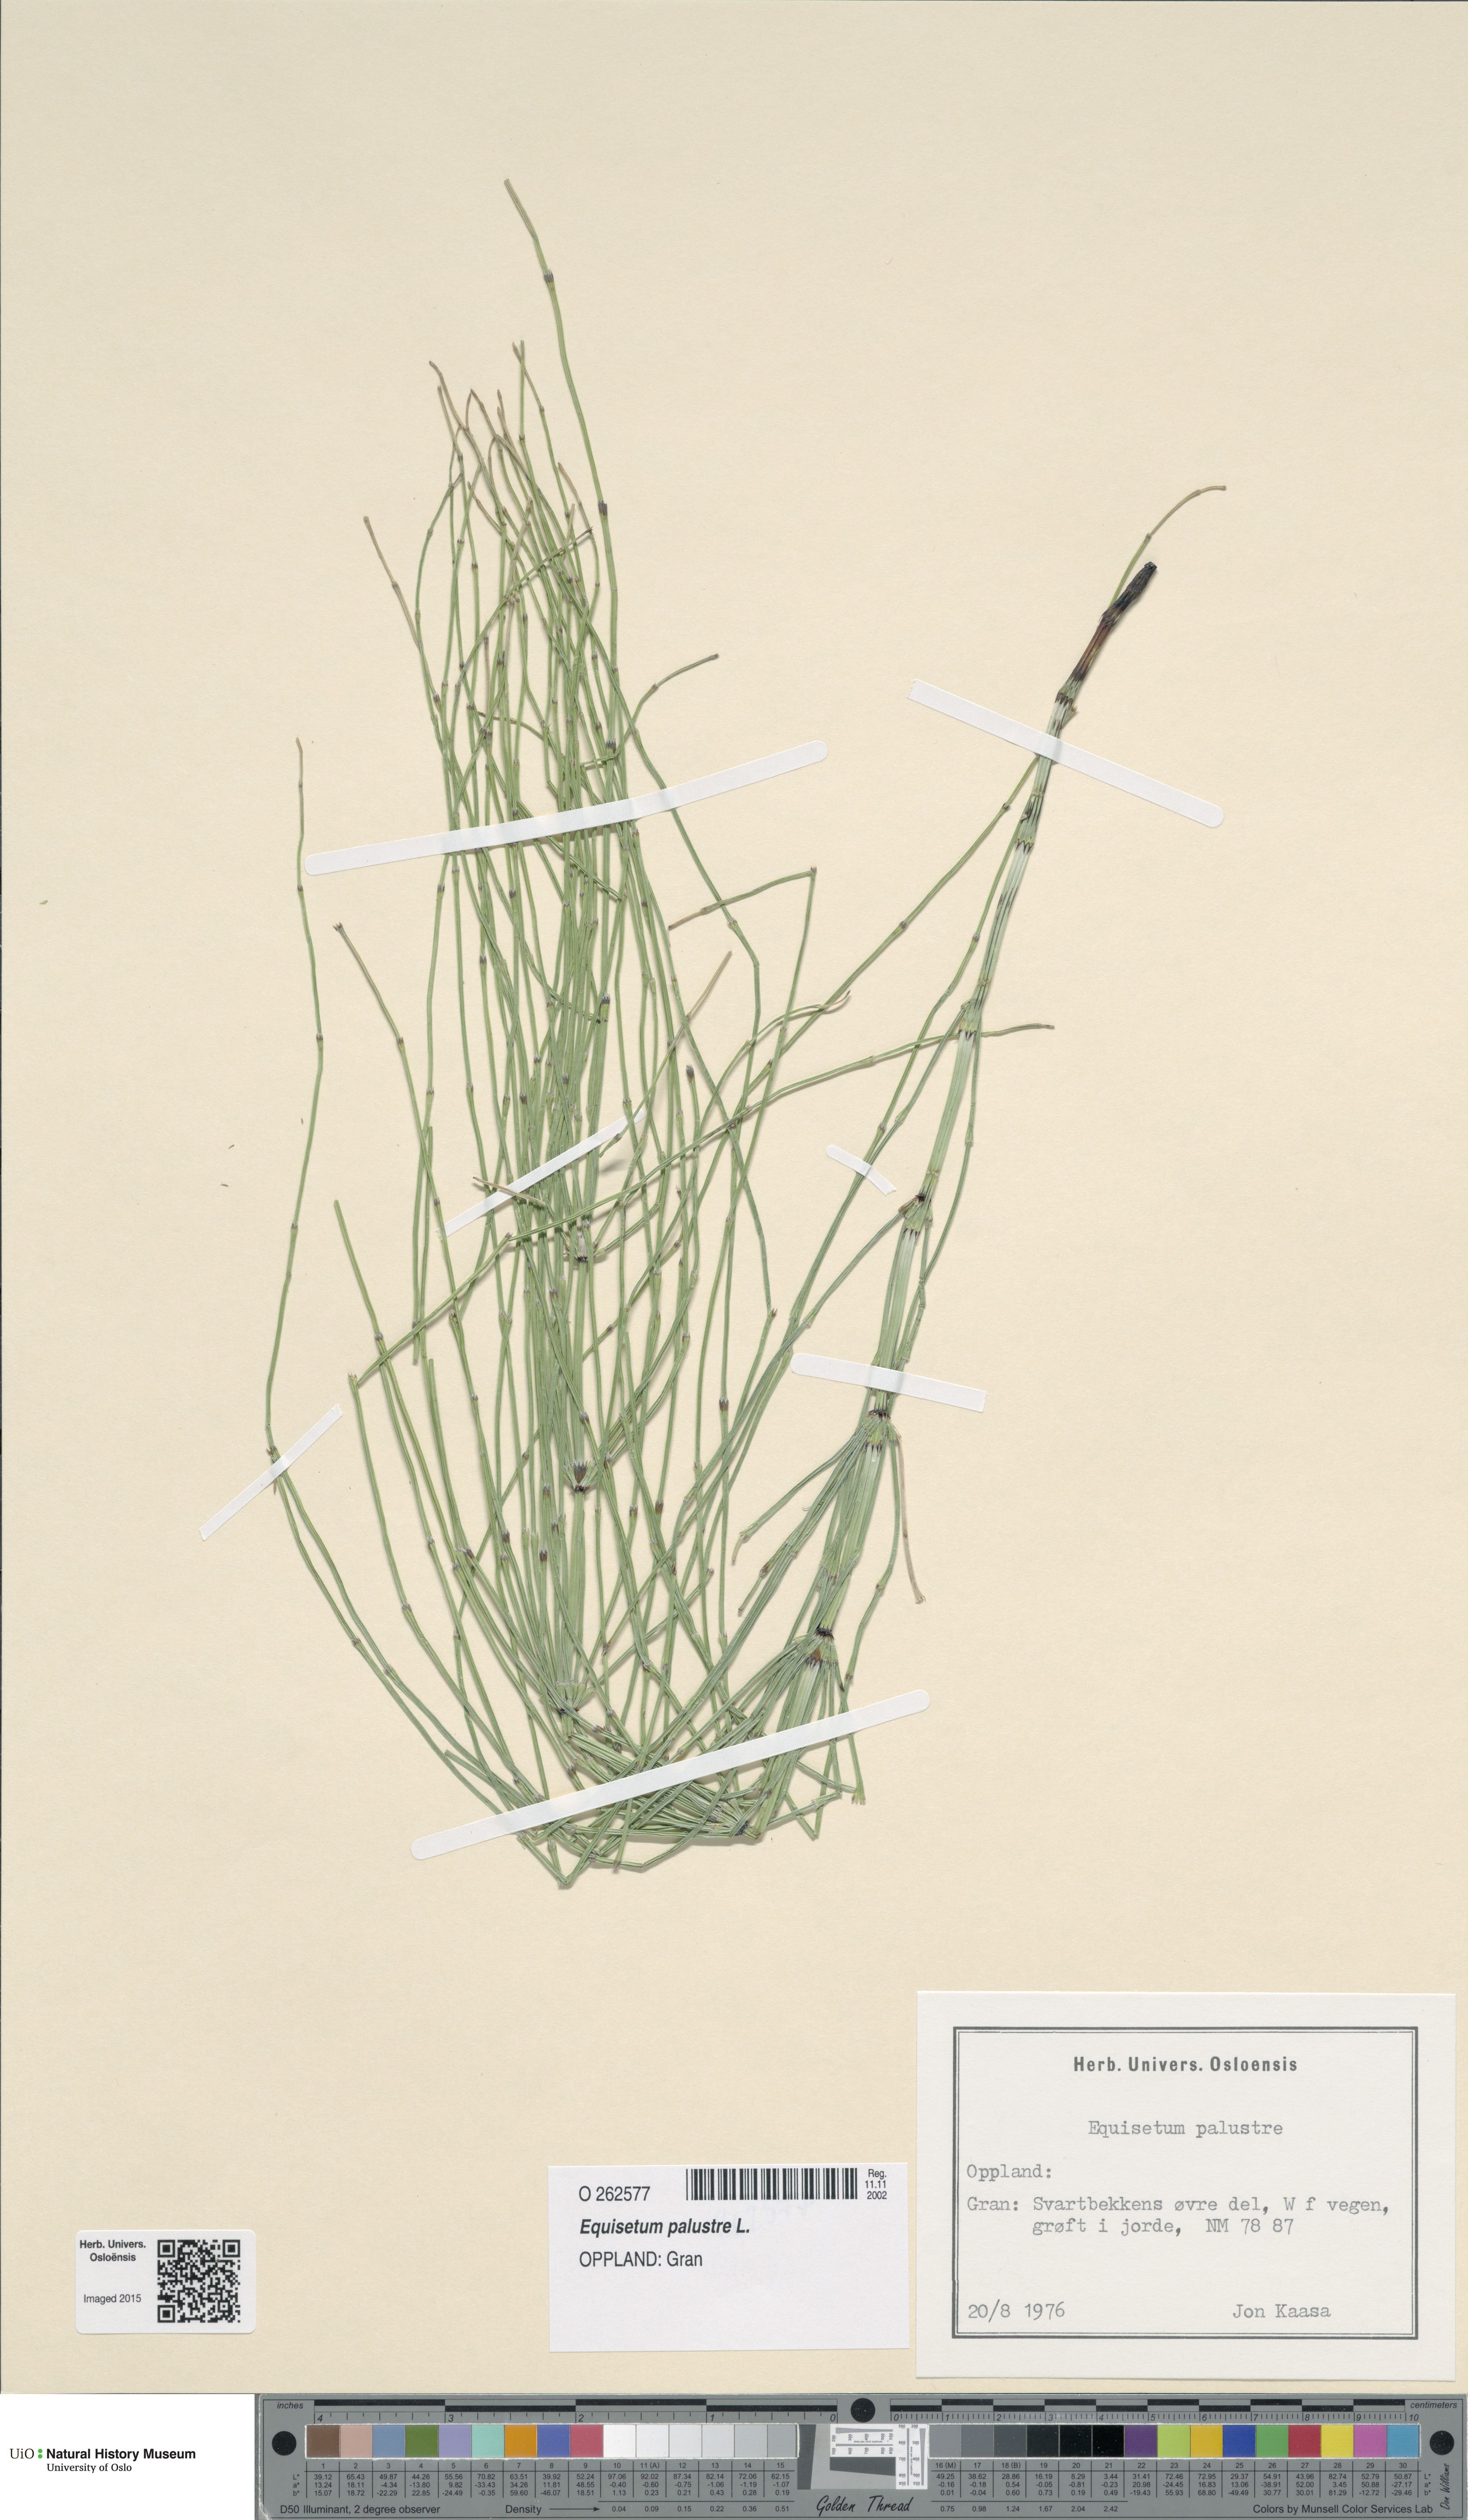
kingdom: Plantae
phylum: Tracheophyta
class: Polypodiopsida
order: Equisetales
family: Equisetaceae
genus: Equisetum
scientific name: Equisetum palustre
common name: Marsh horsetail
